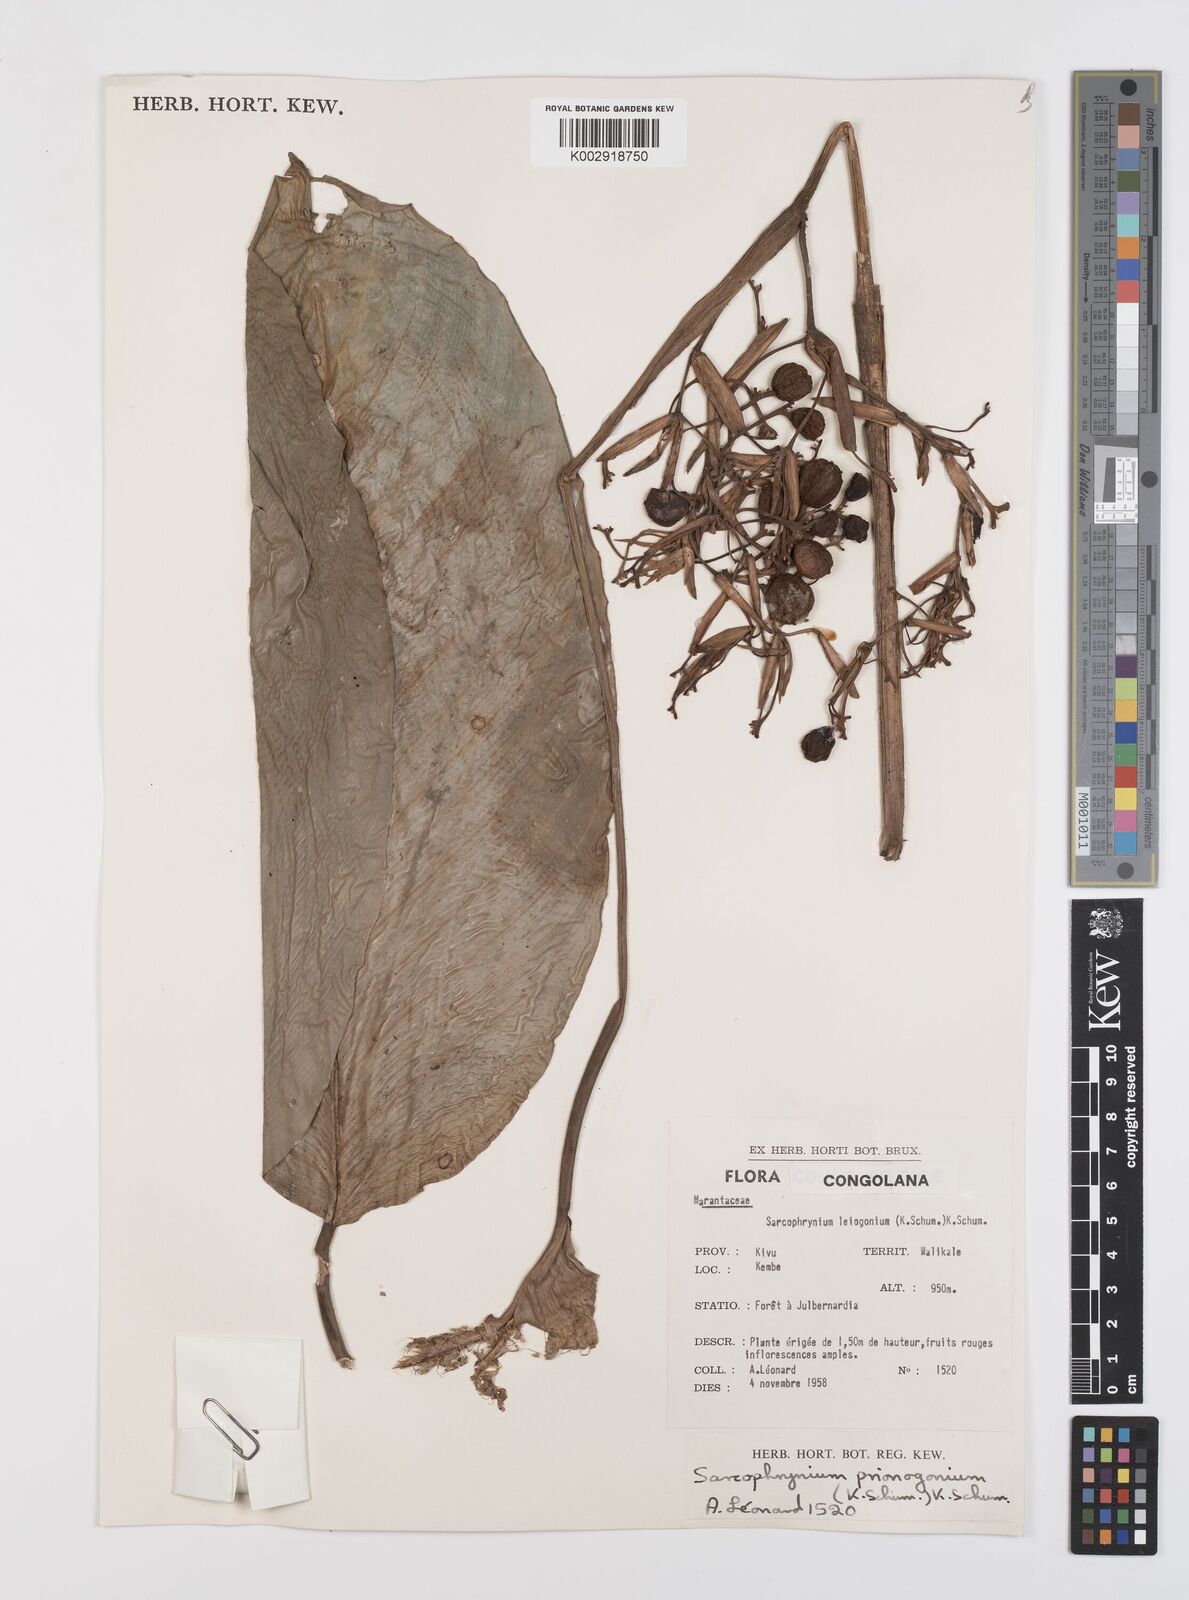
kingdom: Plantae
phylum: Tracheophyta
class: Liliopsida
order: Zingiberales
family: Marantaceae
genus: Sarcophrynium
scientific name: Sarcophrynium prionogonium
